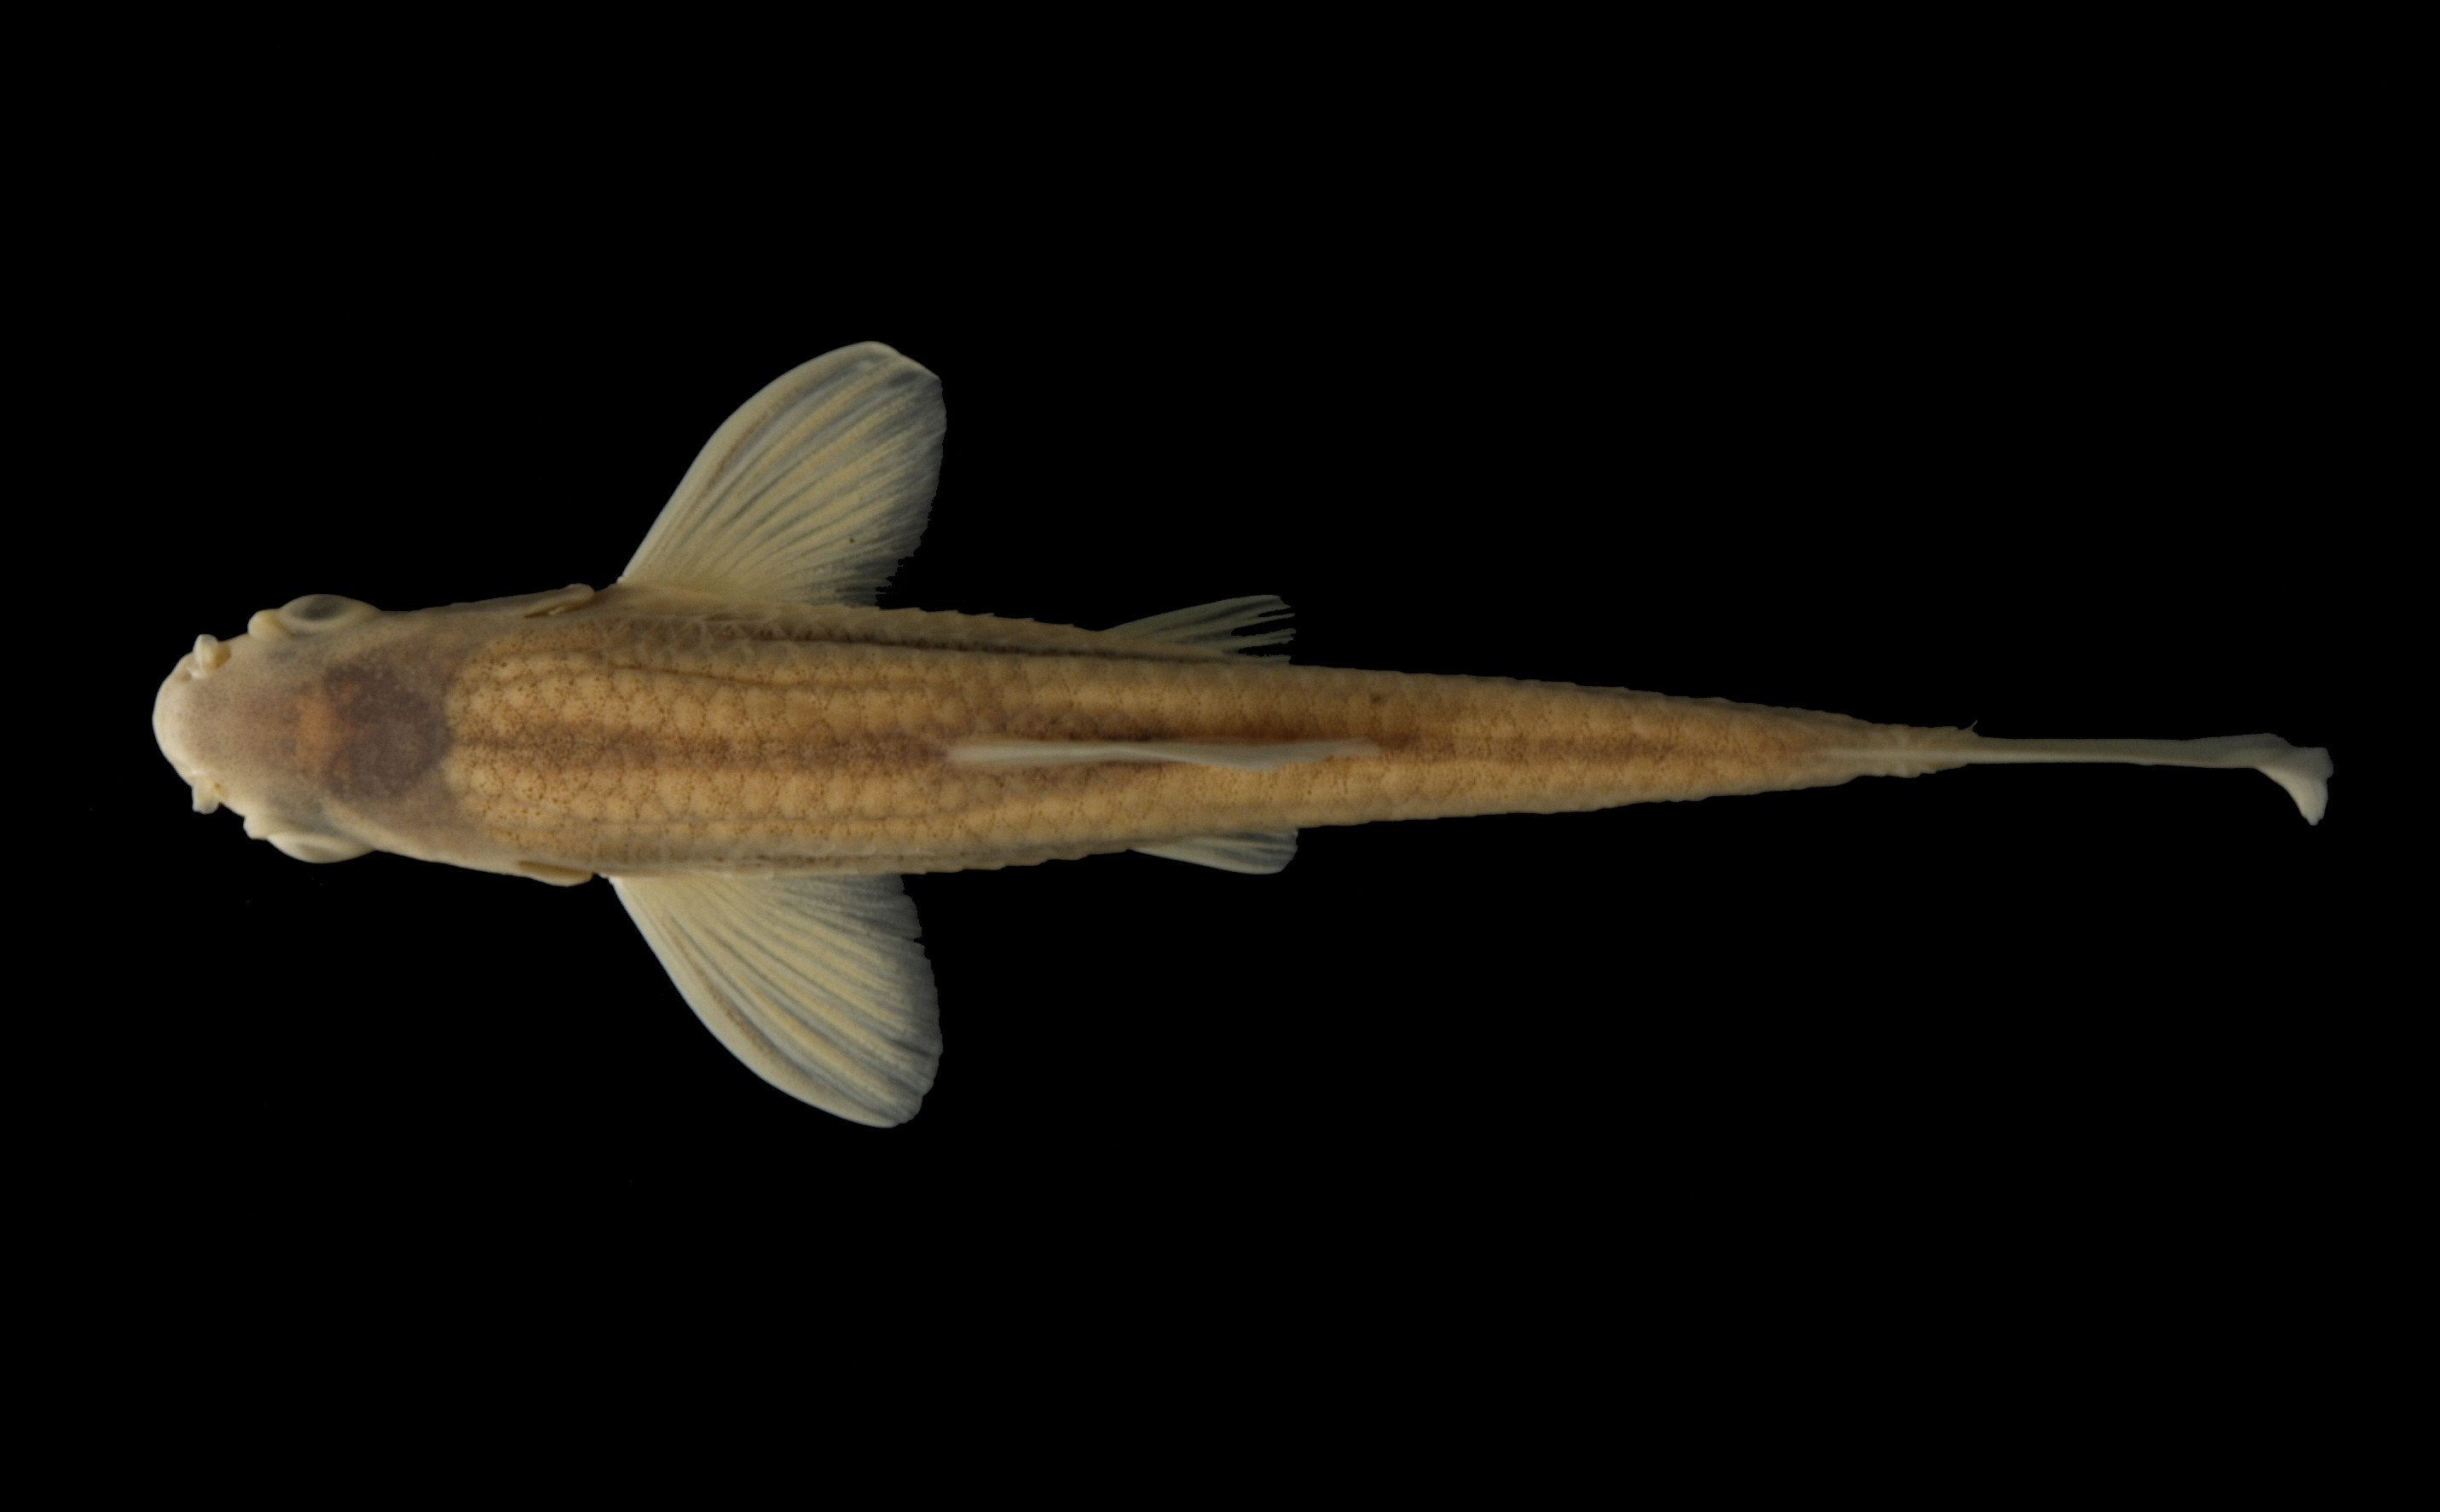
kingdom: Animalia
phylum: Chordata
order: Cypriniformes
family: Cyprinidae
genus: Notropis
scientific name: Notropis braytoni
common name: Tamaulipas shiner
